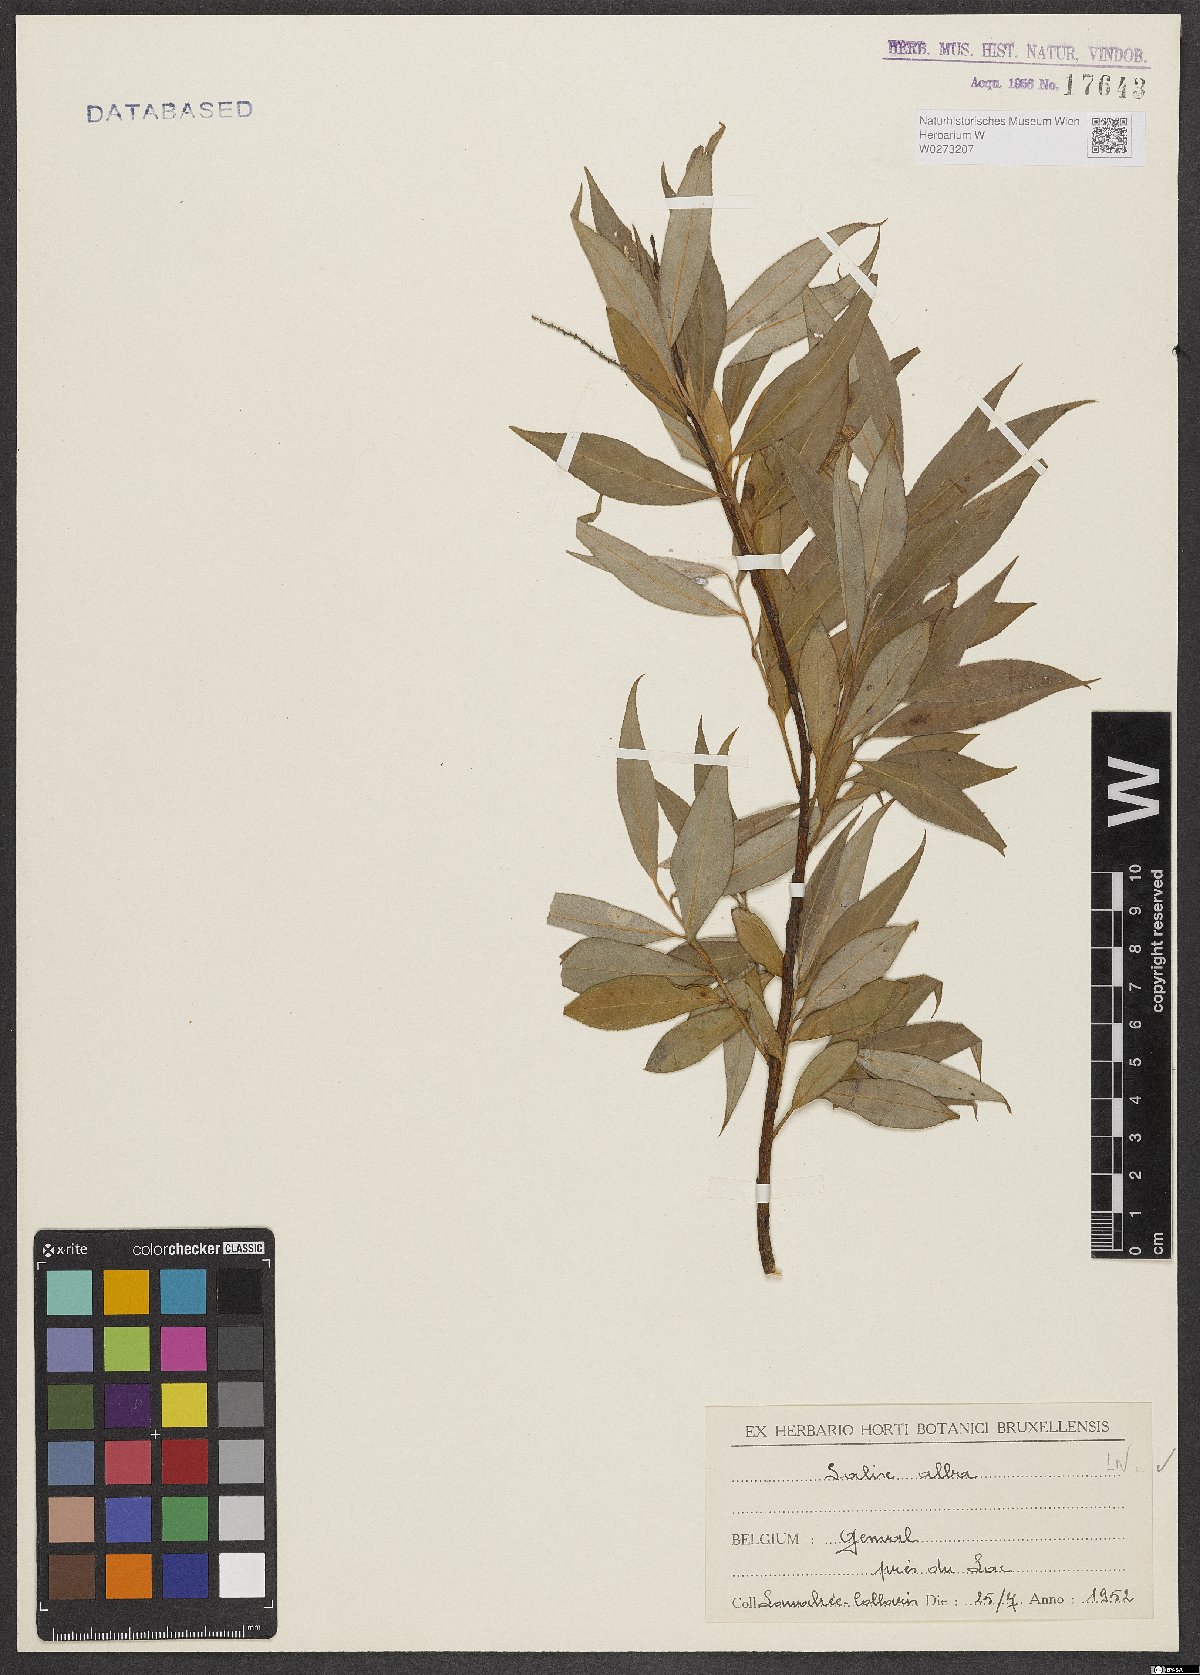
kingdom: Plantae
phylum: Tracheophyta
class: Magnoliopsida
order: Malpighiales
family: Salicaceae
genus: Salix
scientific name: Salix alba
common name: White willow
